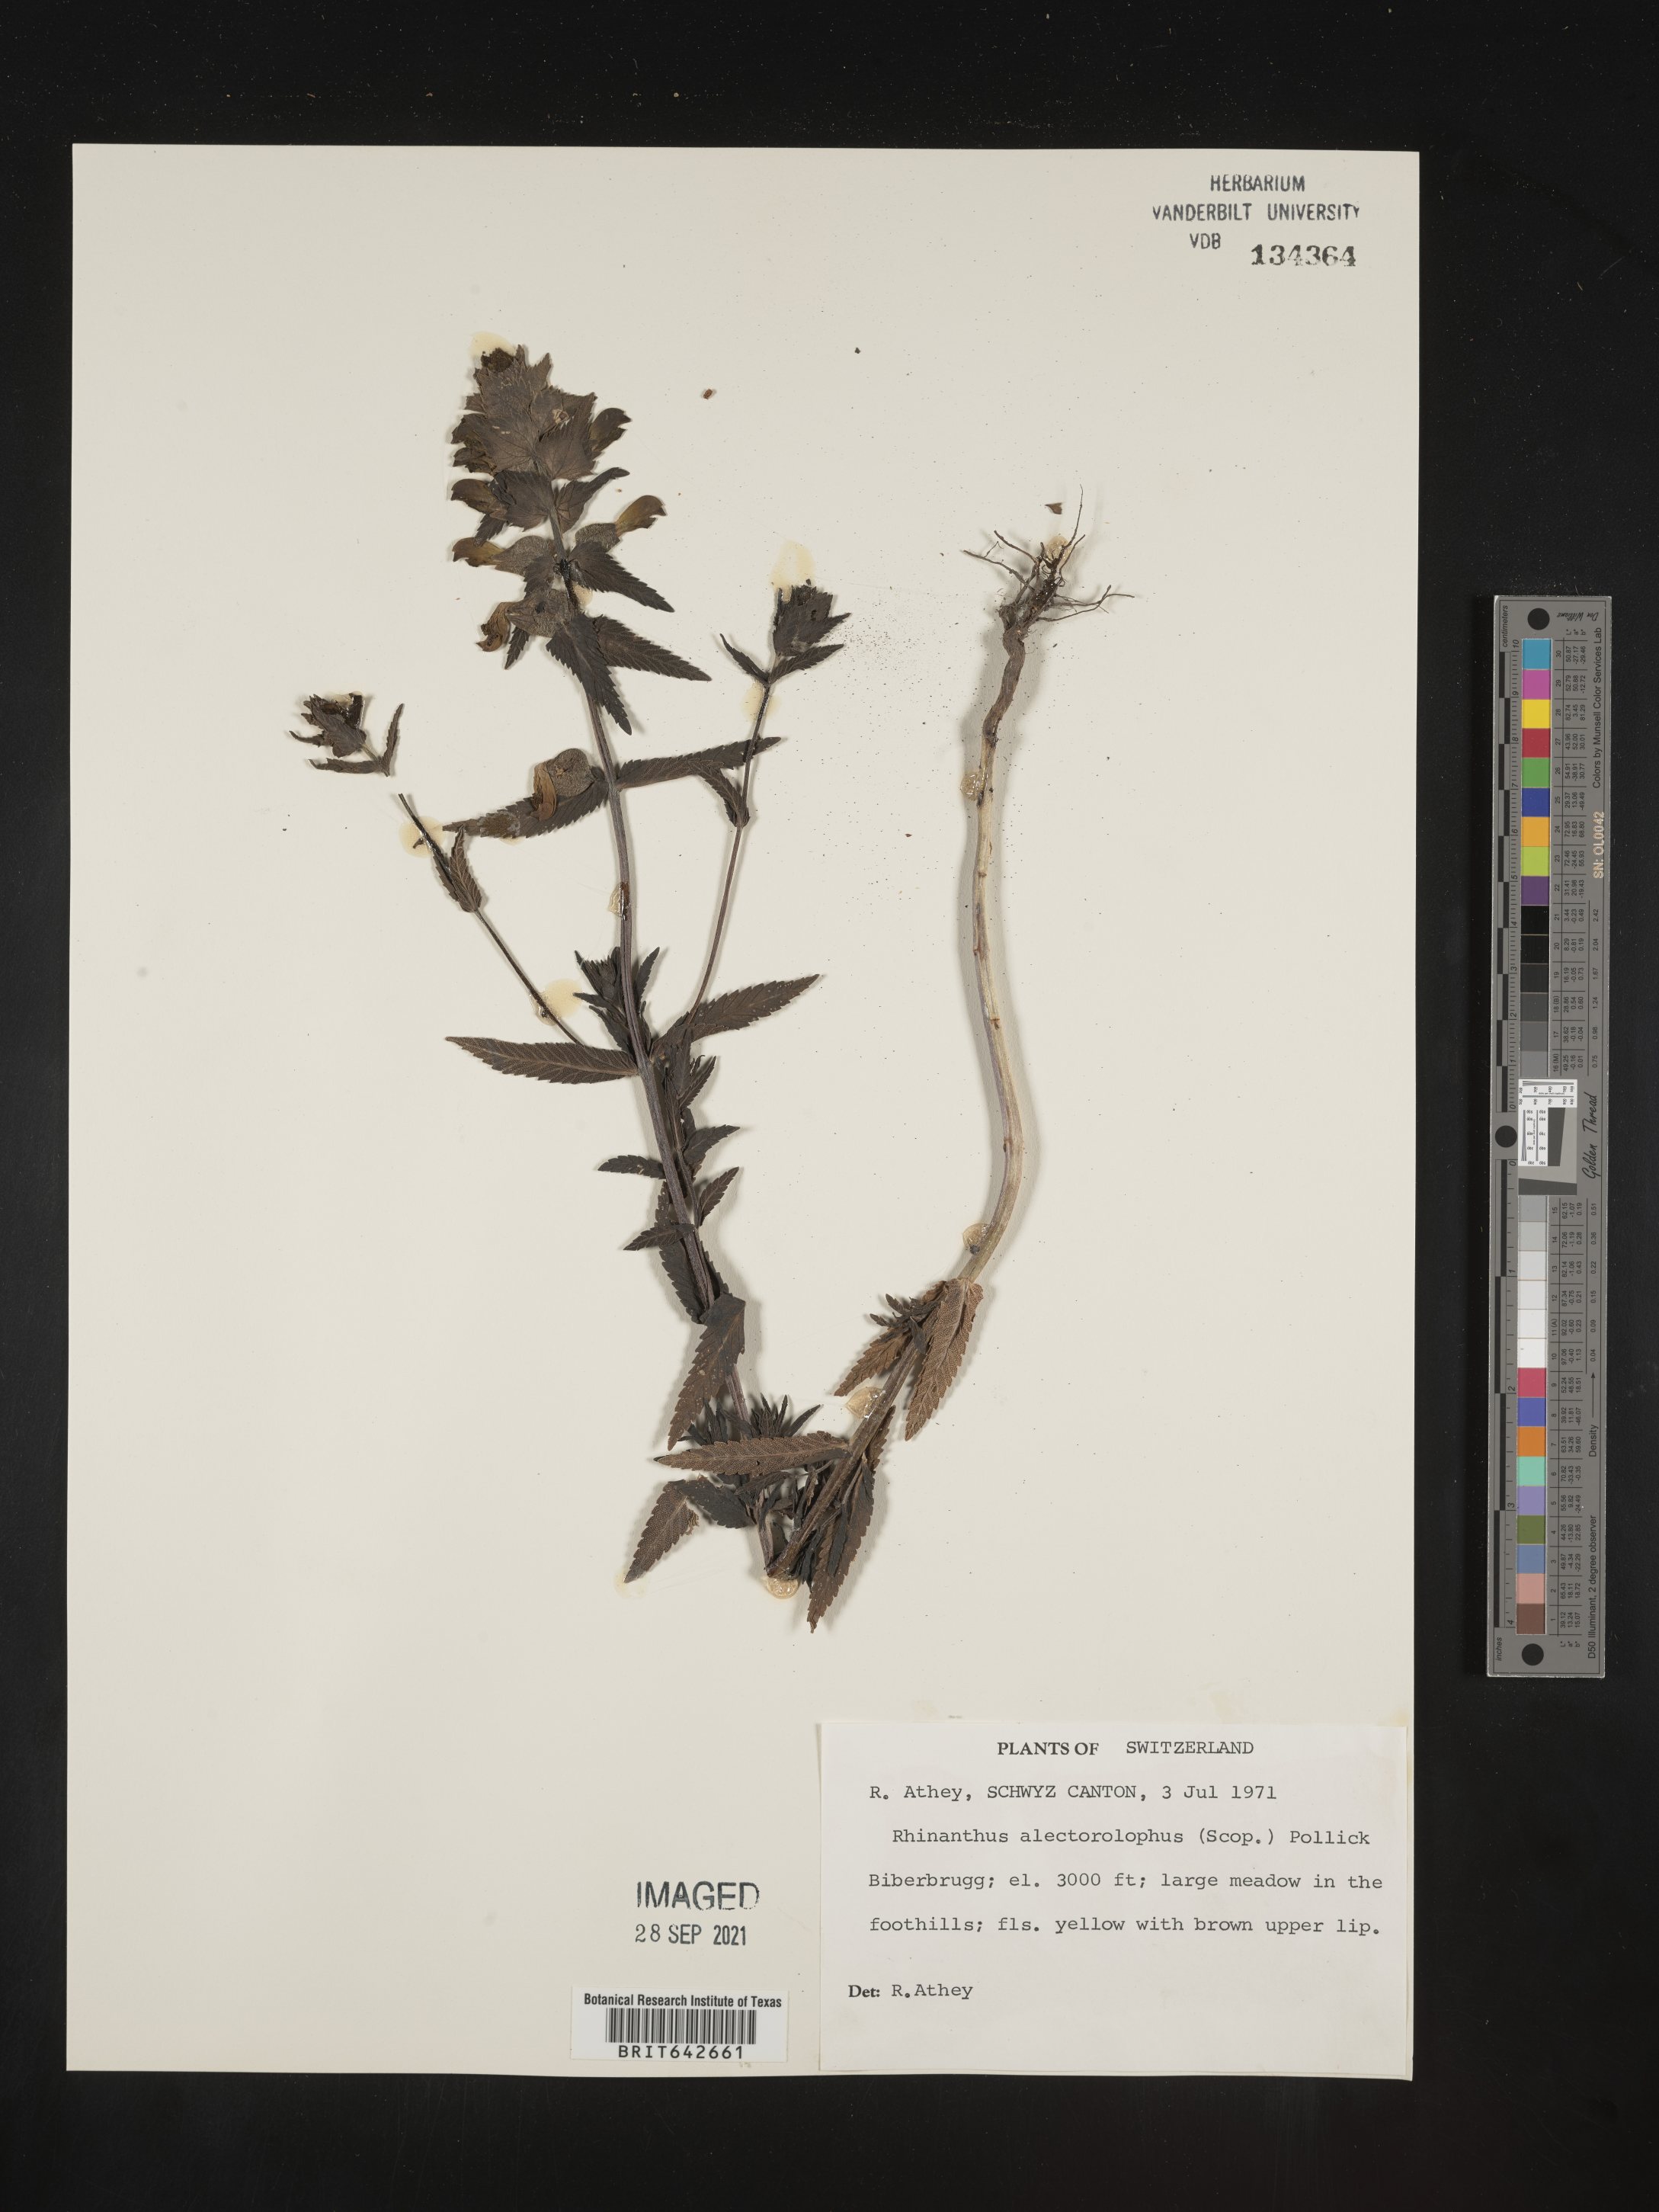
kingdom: Plantae
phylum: Tracheophyta
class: Magnoliopsida
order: Lamiales
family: Orobanchaceae
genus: Rhinanthus
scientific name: Rhinanthus
